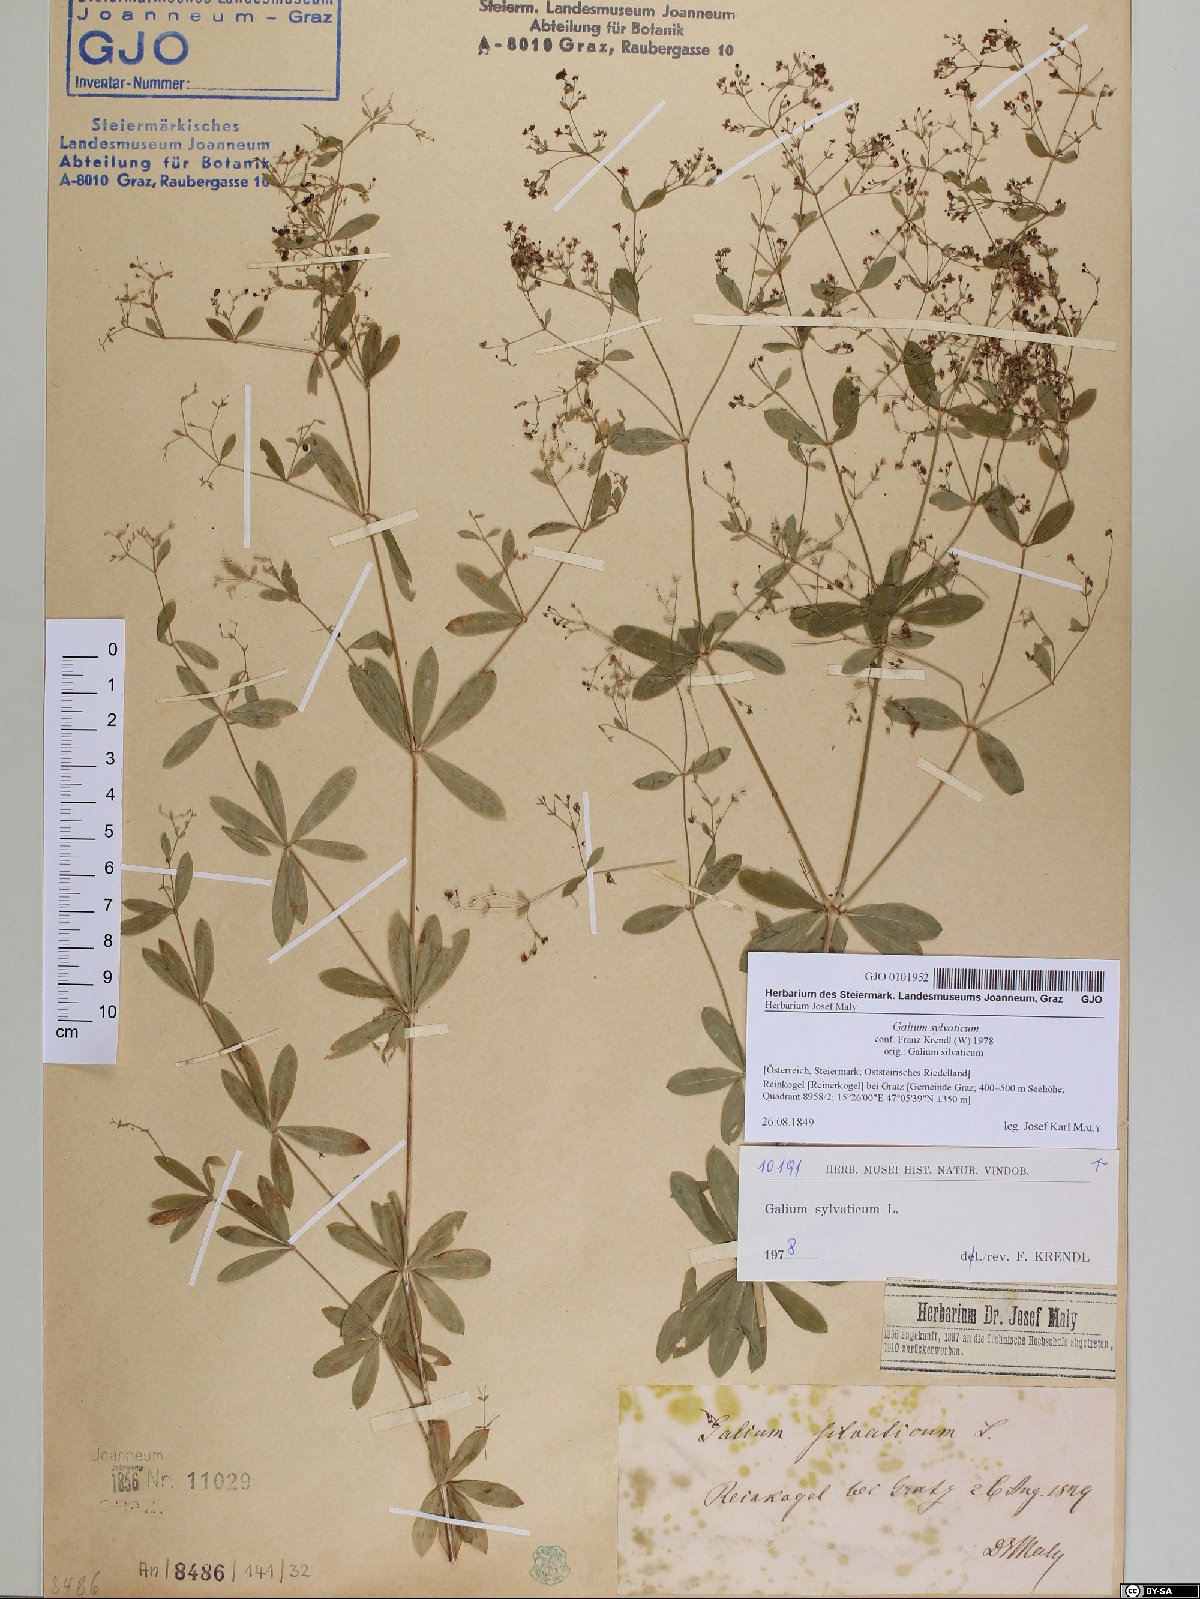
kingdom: Plantae
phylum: Tracheophyta
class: Magnoliopsida
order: Gentianales
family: Rubiaceae
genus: Galium
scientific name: Galium sylvaticum
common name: Wood bedstraw
